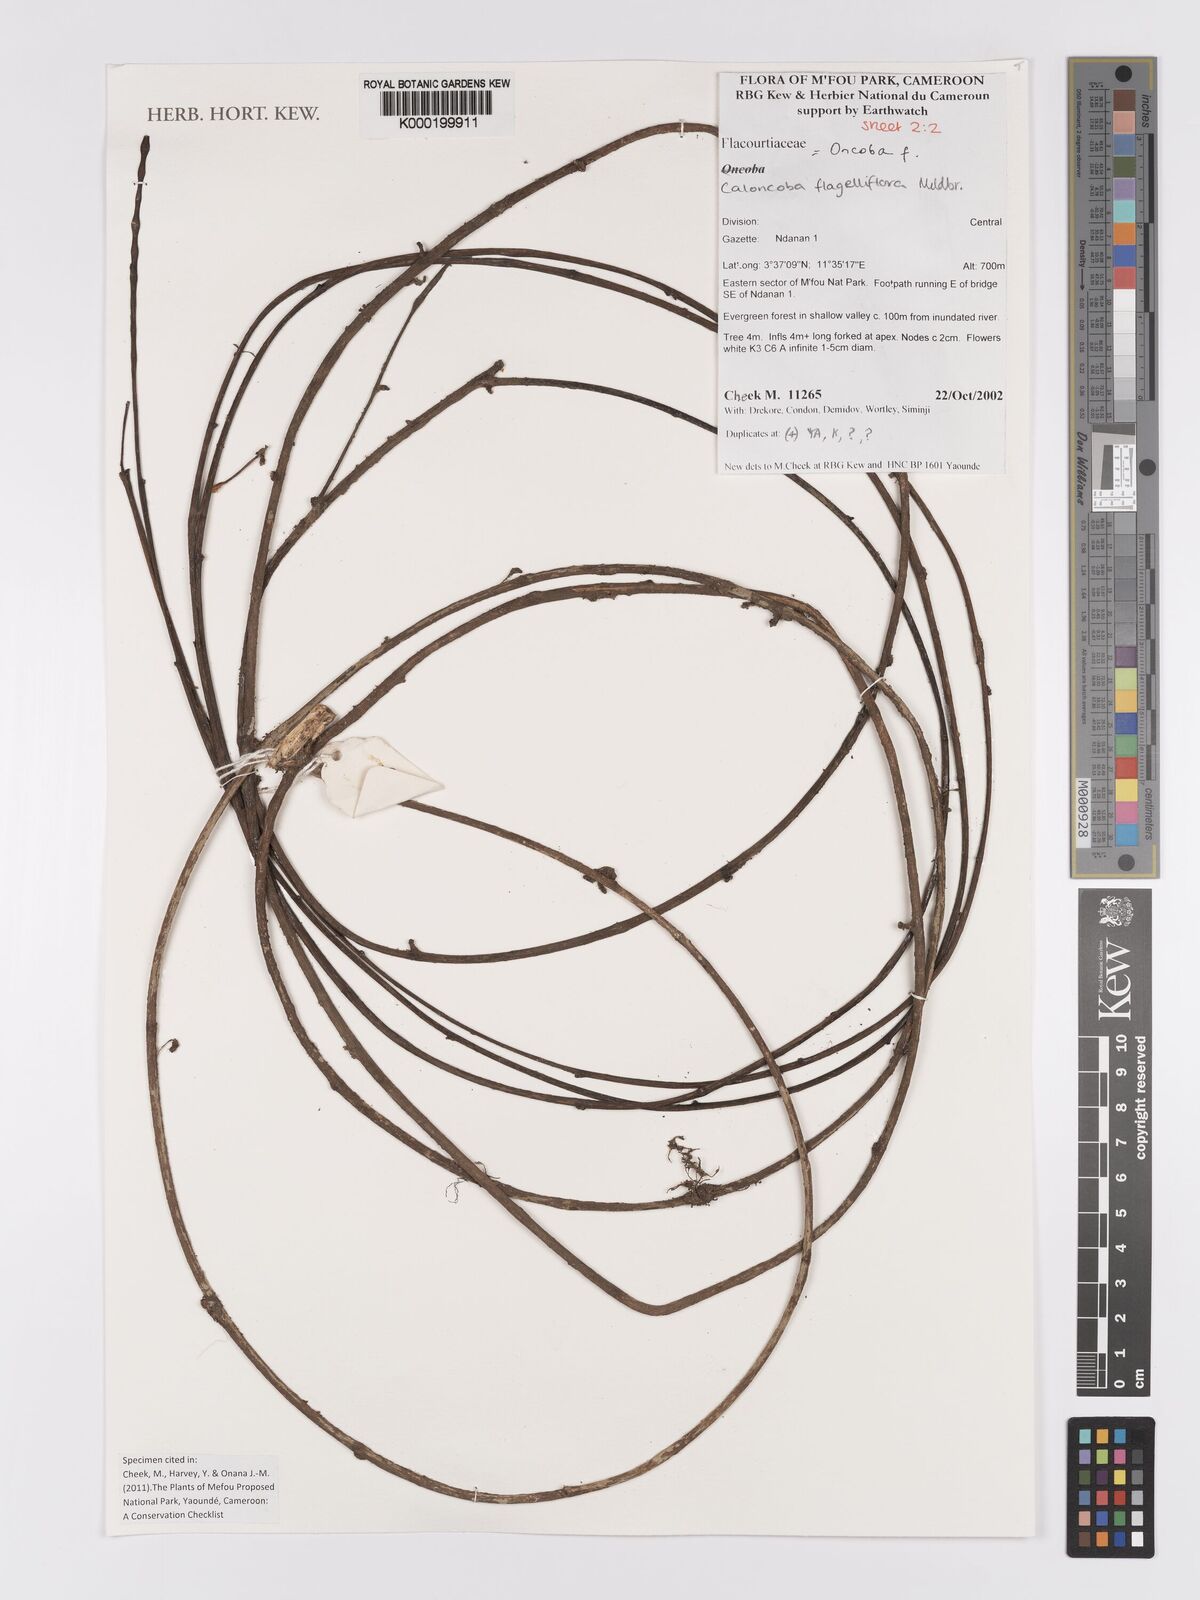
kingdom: Plantae
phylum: Tracheophyta
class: Magnoliopsida
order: Malpighiales
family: Achariaceae
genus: Caloncoba
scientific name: Caloncoba flagelliflora
